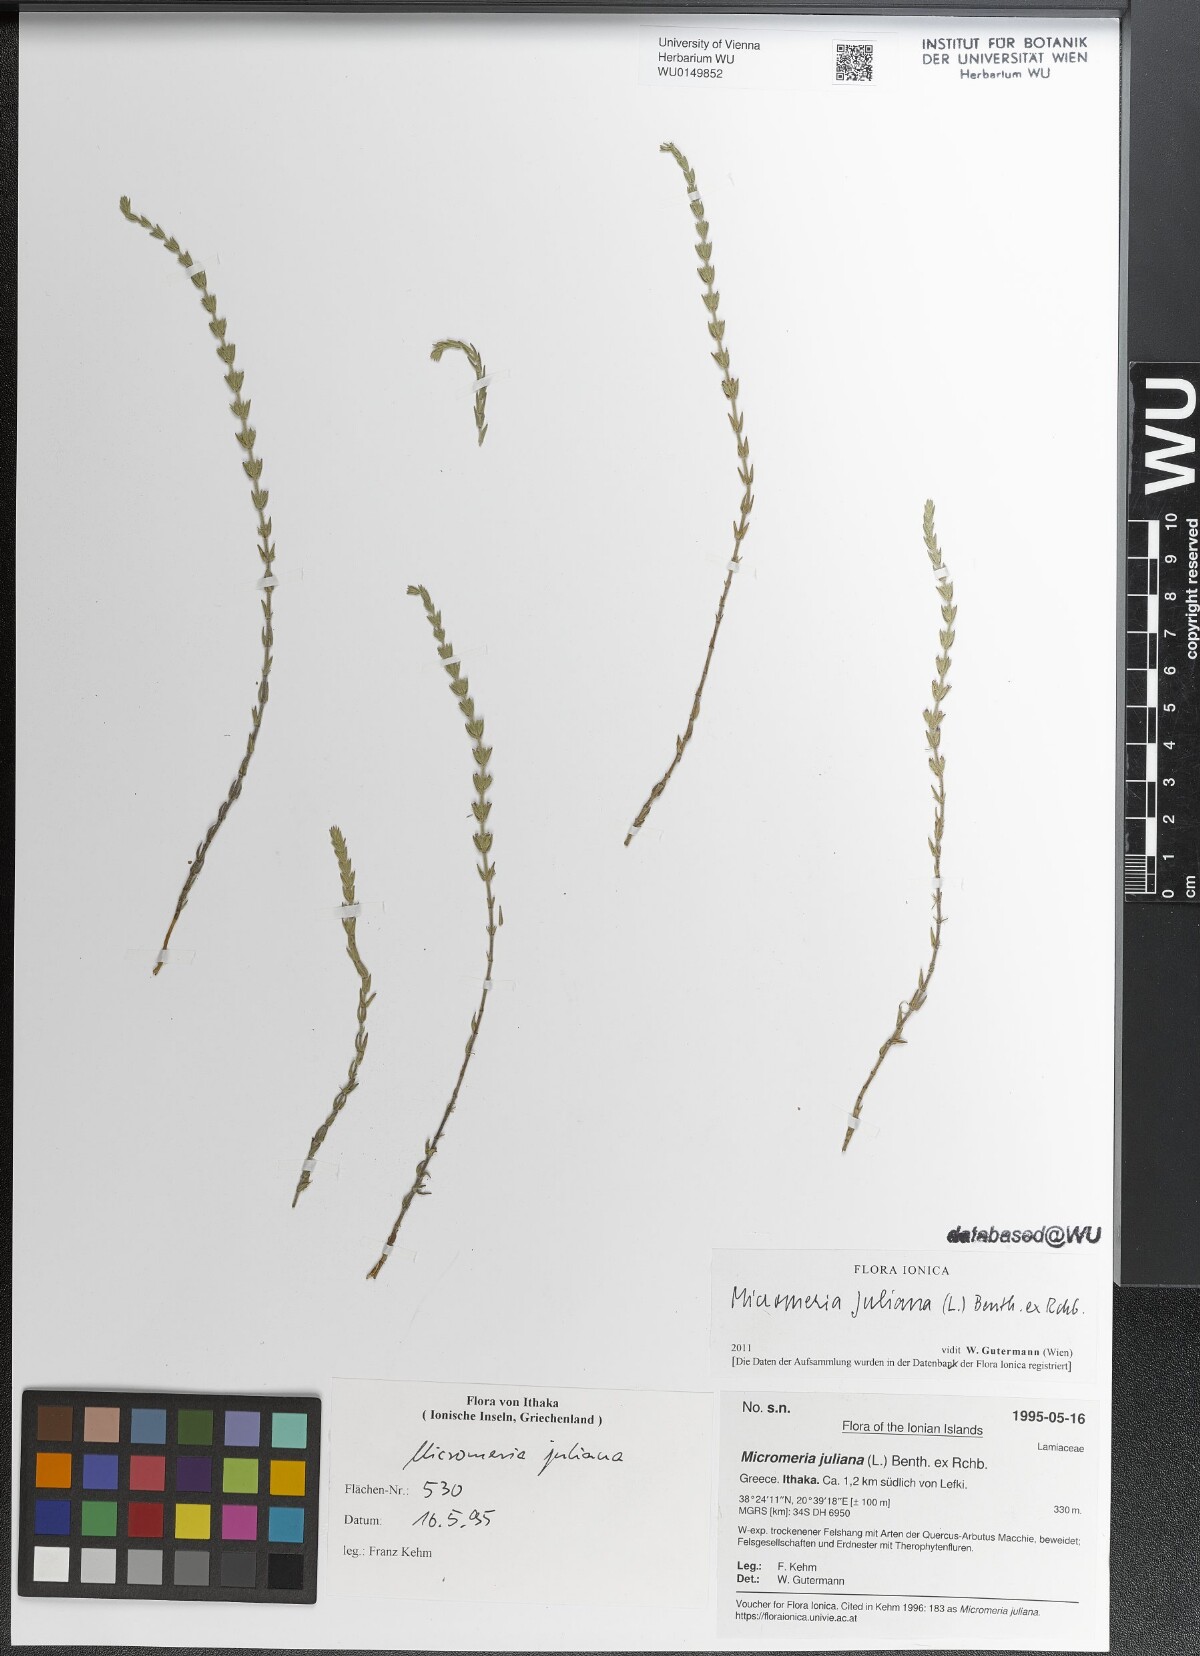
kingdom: Plantae
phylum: Tracheophyta
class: Magnoliopsida
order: Lamiales
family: Lamiaceae
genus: Micromeria
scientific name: Micromeria juliana
